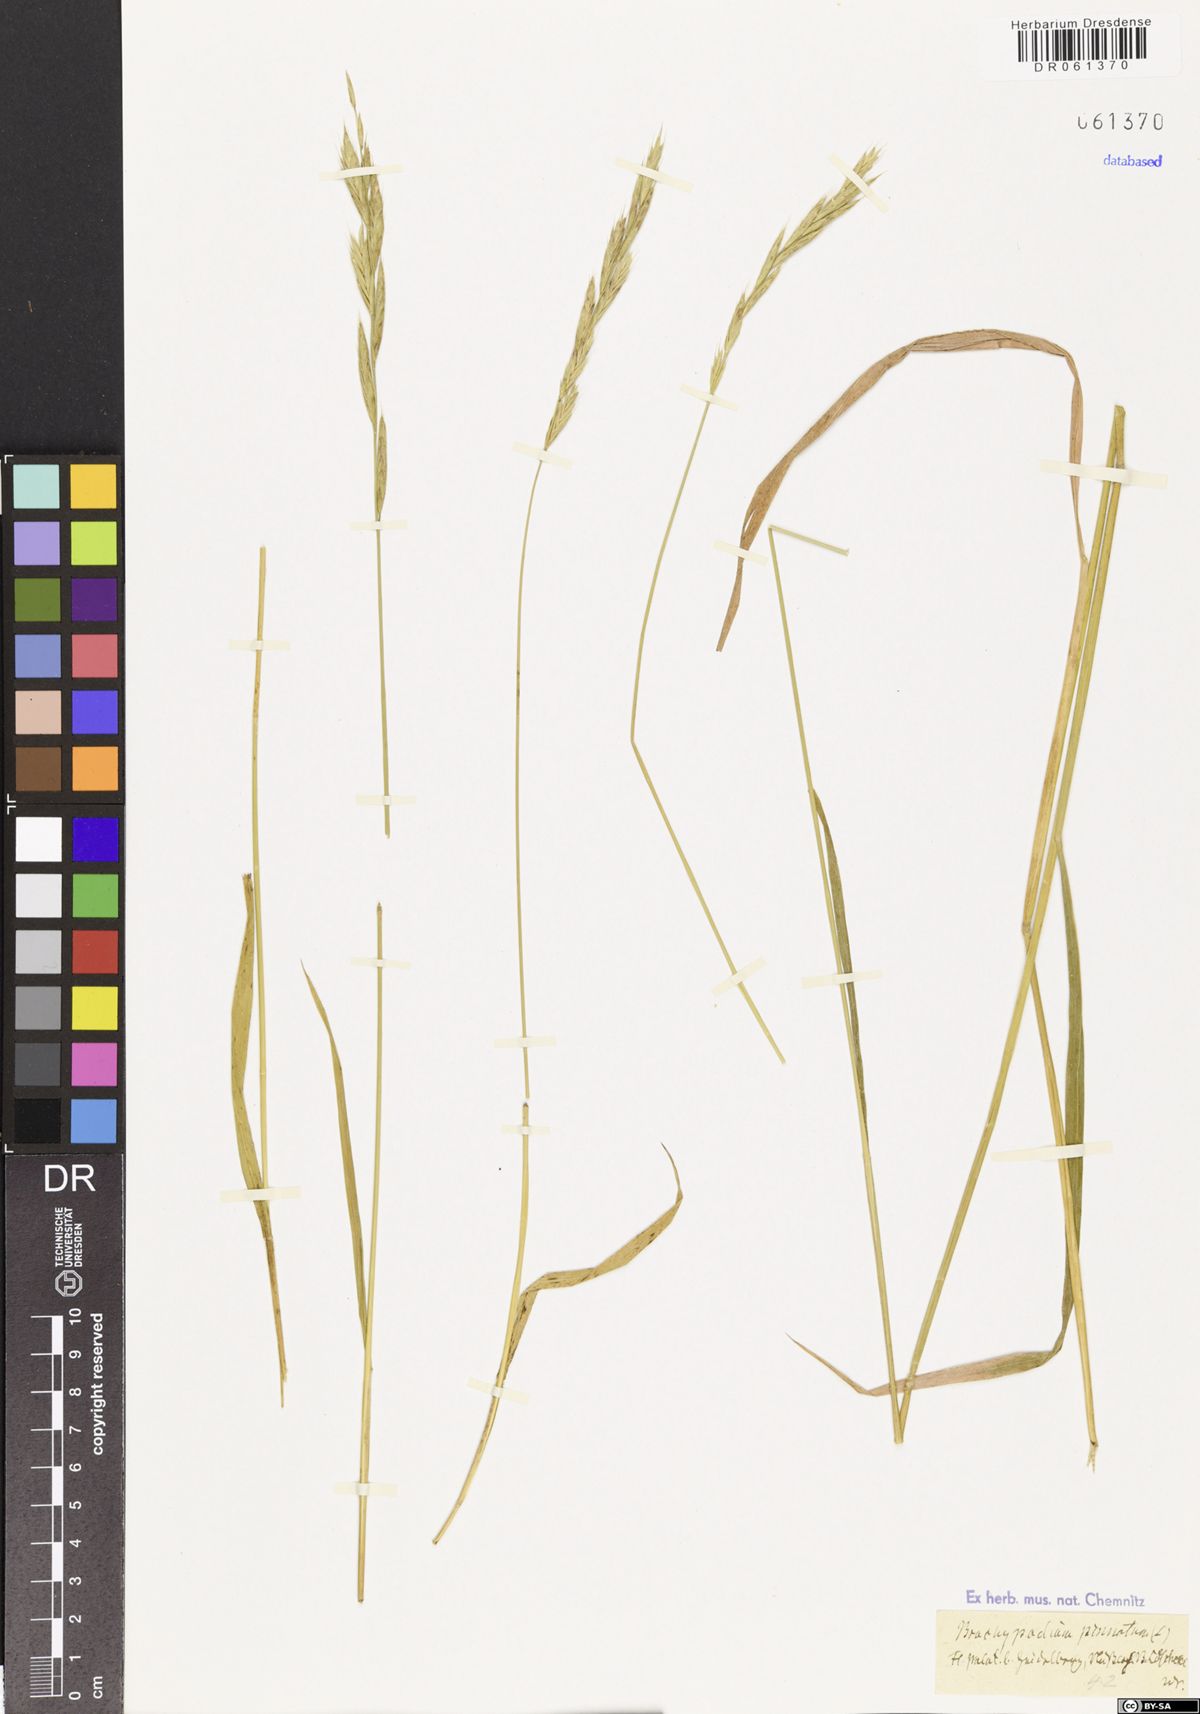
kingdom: Plantae
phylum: Tracheophyta
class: Liliopsida
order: Poales
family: Poaceae
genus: Brachypodium
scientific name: Brachypodium pinnatum
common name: Tor grass
